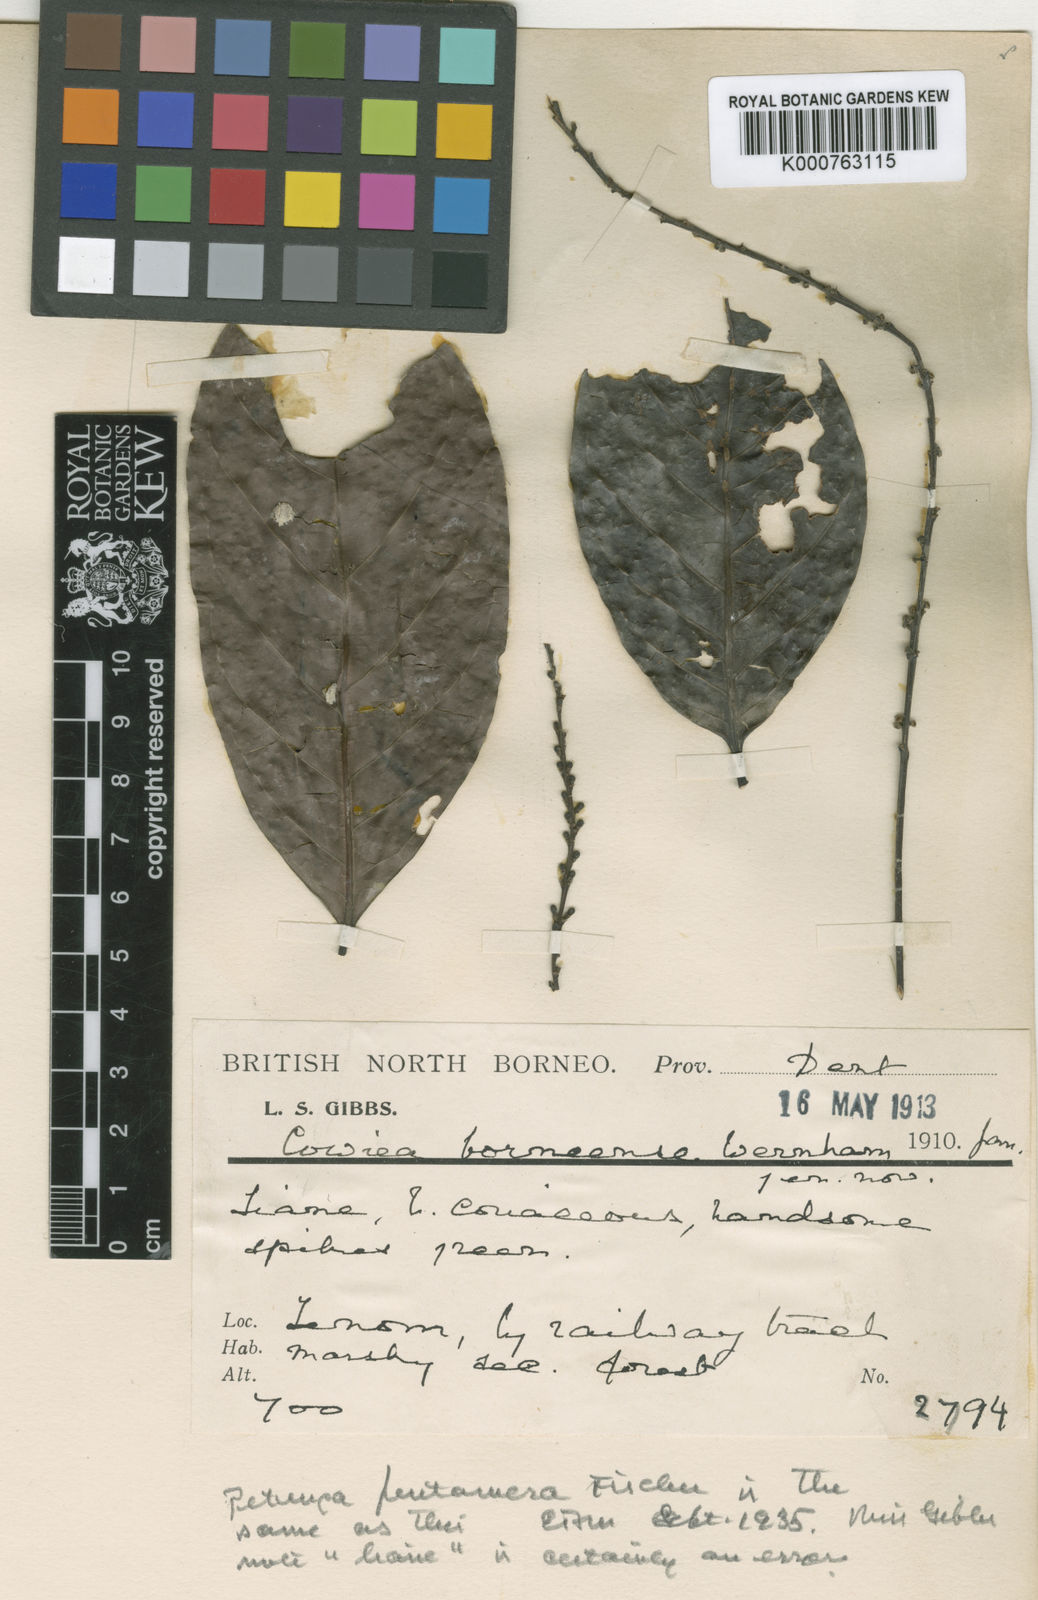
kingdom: Plantae
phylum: Tracheophyta
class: Magnoliopsida
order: Gentianales
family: Rubiaceae
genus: Cowiea
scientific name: Cowiea borneensis
